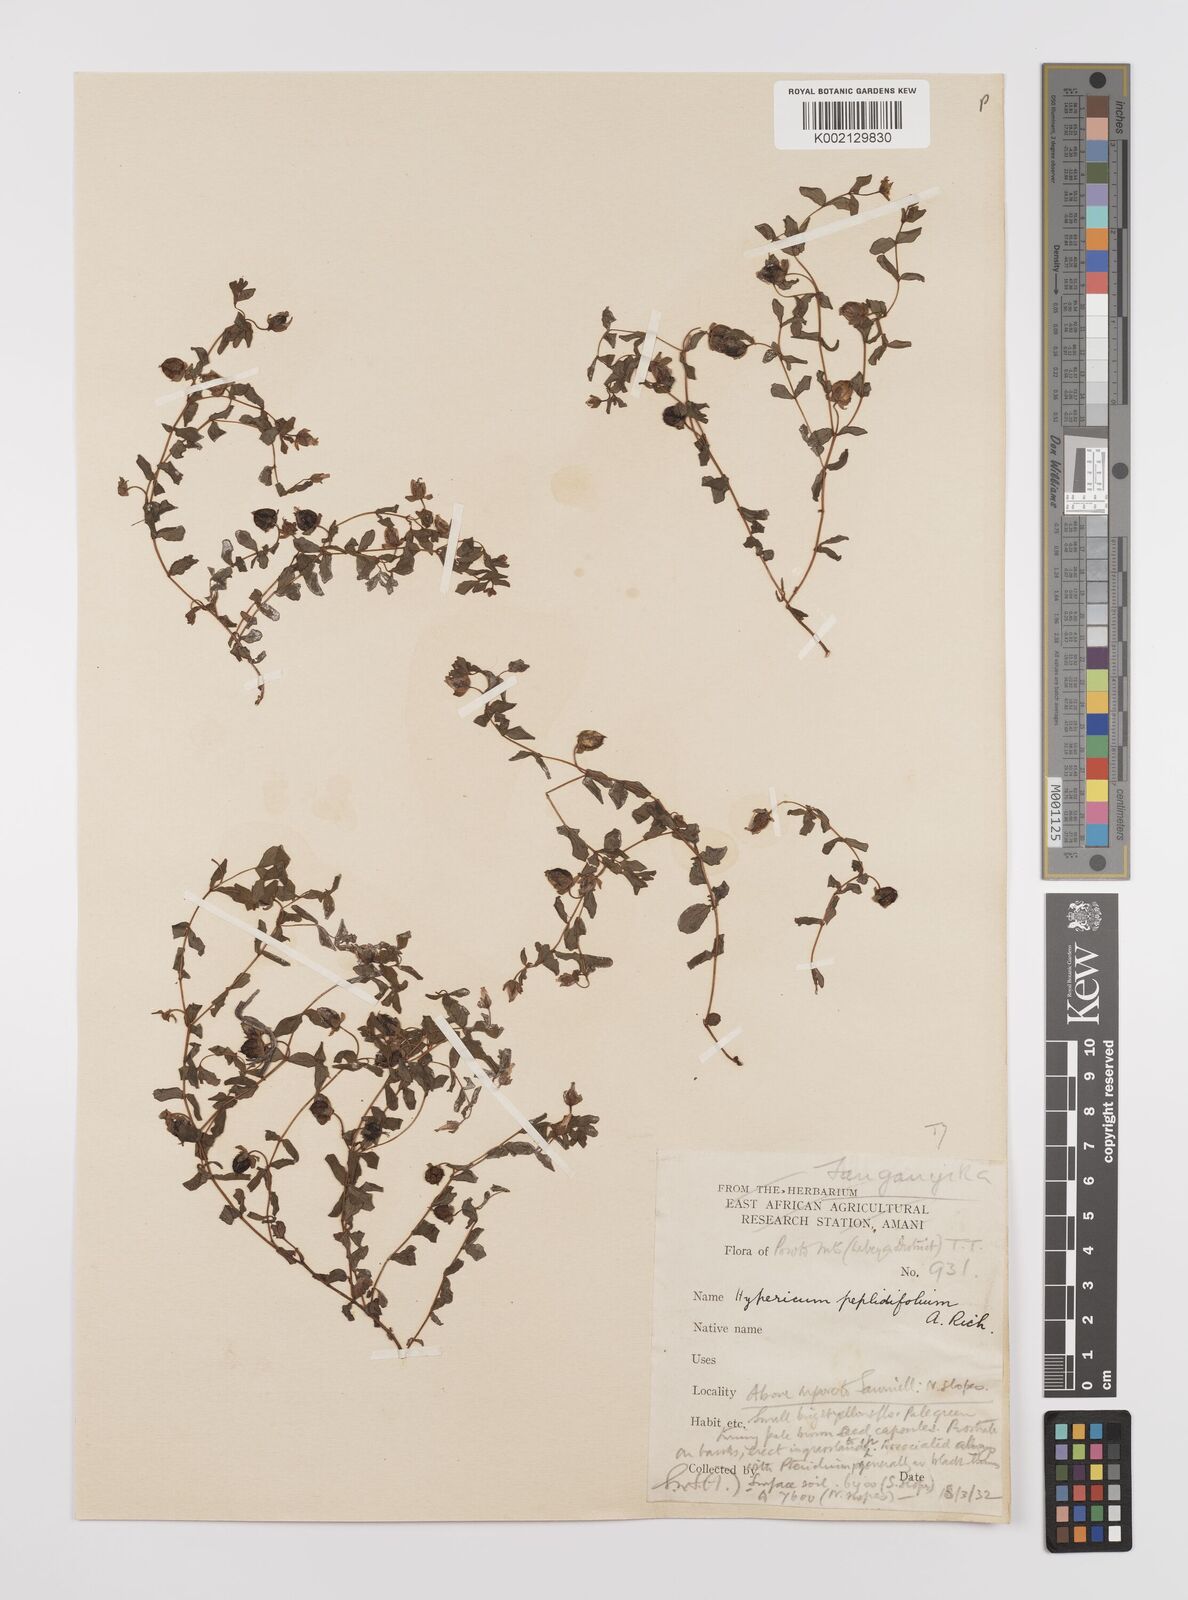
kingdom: Plantae
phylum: Tracheophyta
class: Magnoliopsida
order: Malpighiales
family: Hypericaceae
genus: Hypericum
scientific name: Hypericum peplidifolium
